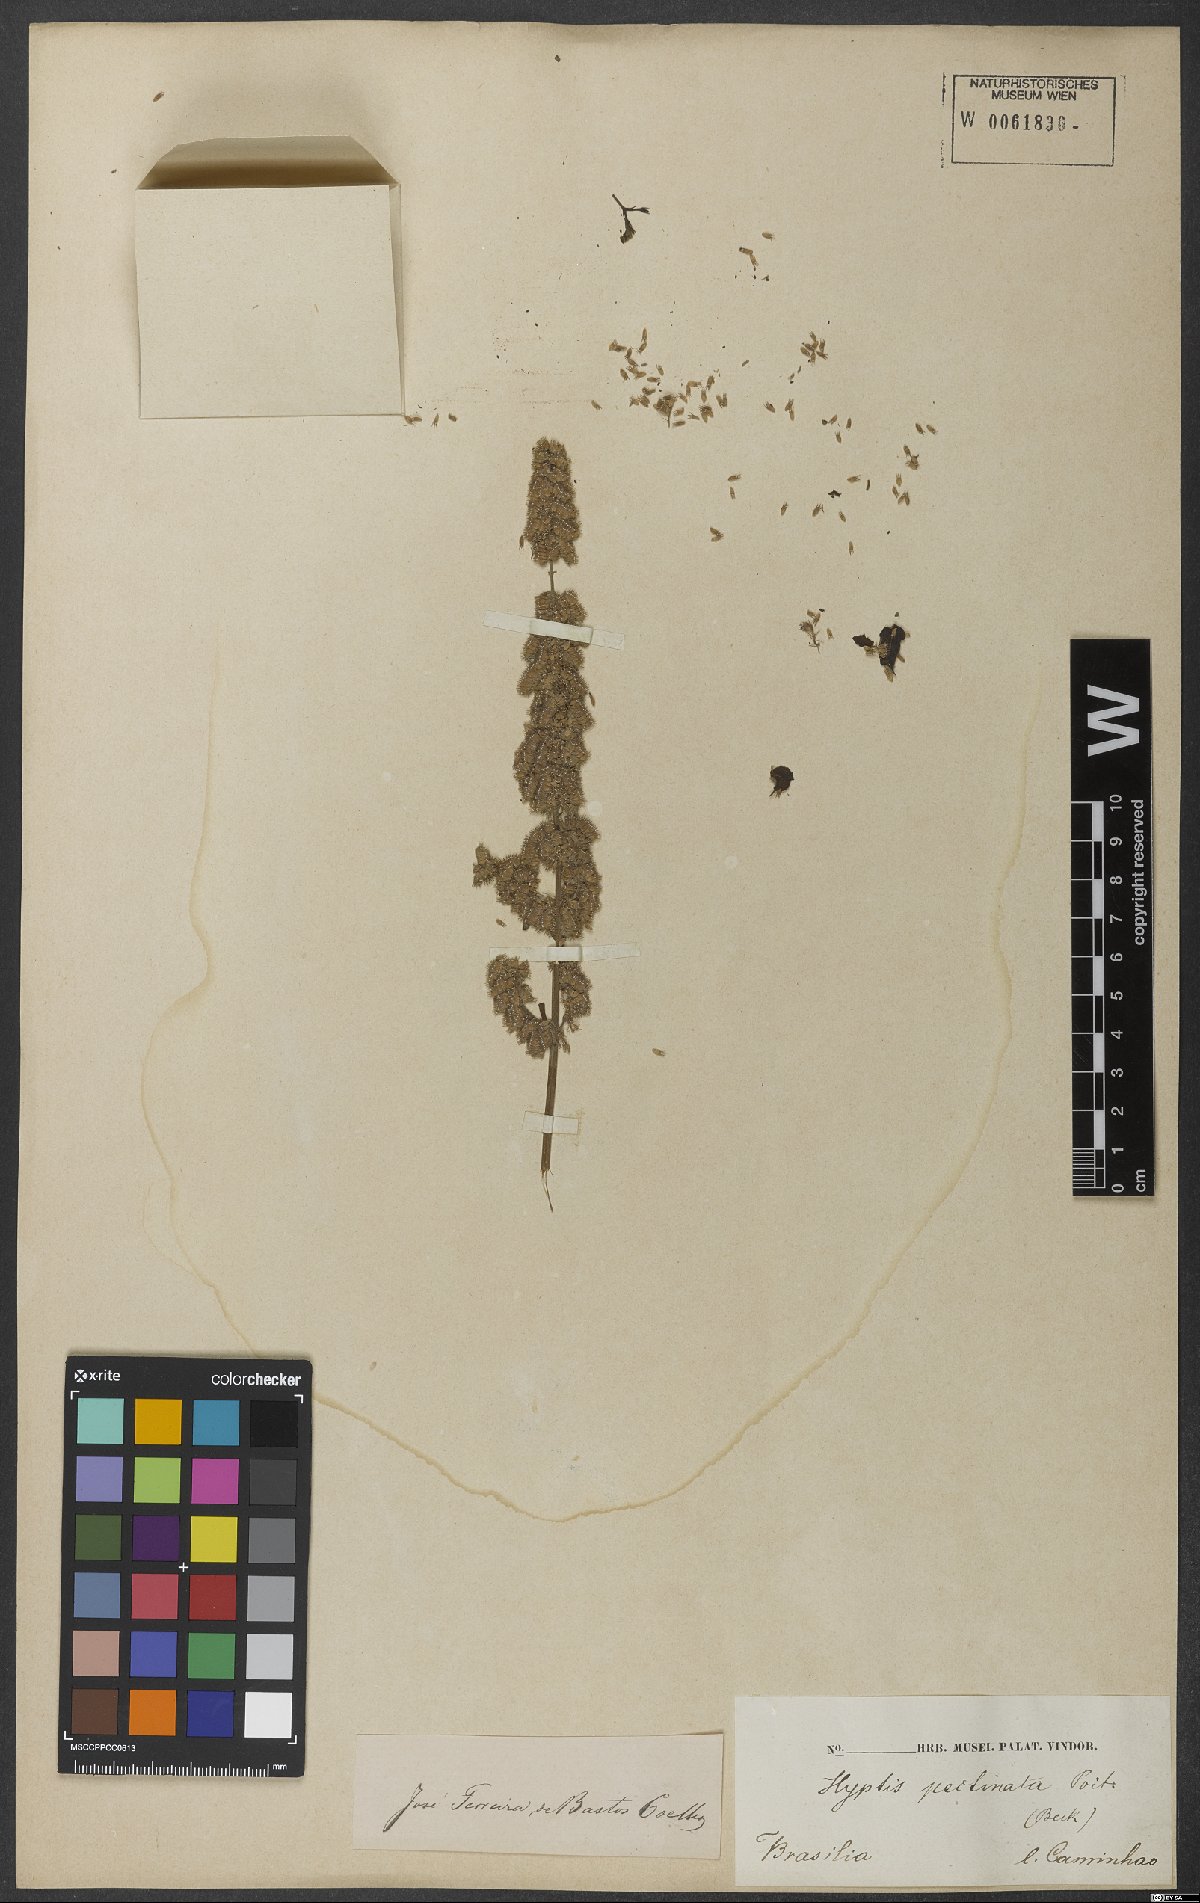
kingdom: Plantae
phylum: Tracheophyta
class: Magnoliopsida
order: Lamiales
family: Lamiaceae
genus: Mesosphaerum
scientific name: Mesosphaerum pectinatum
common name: Comb hyptis
